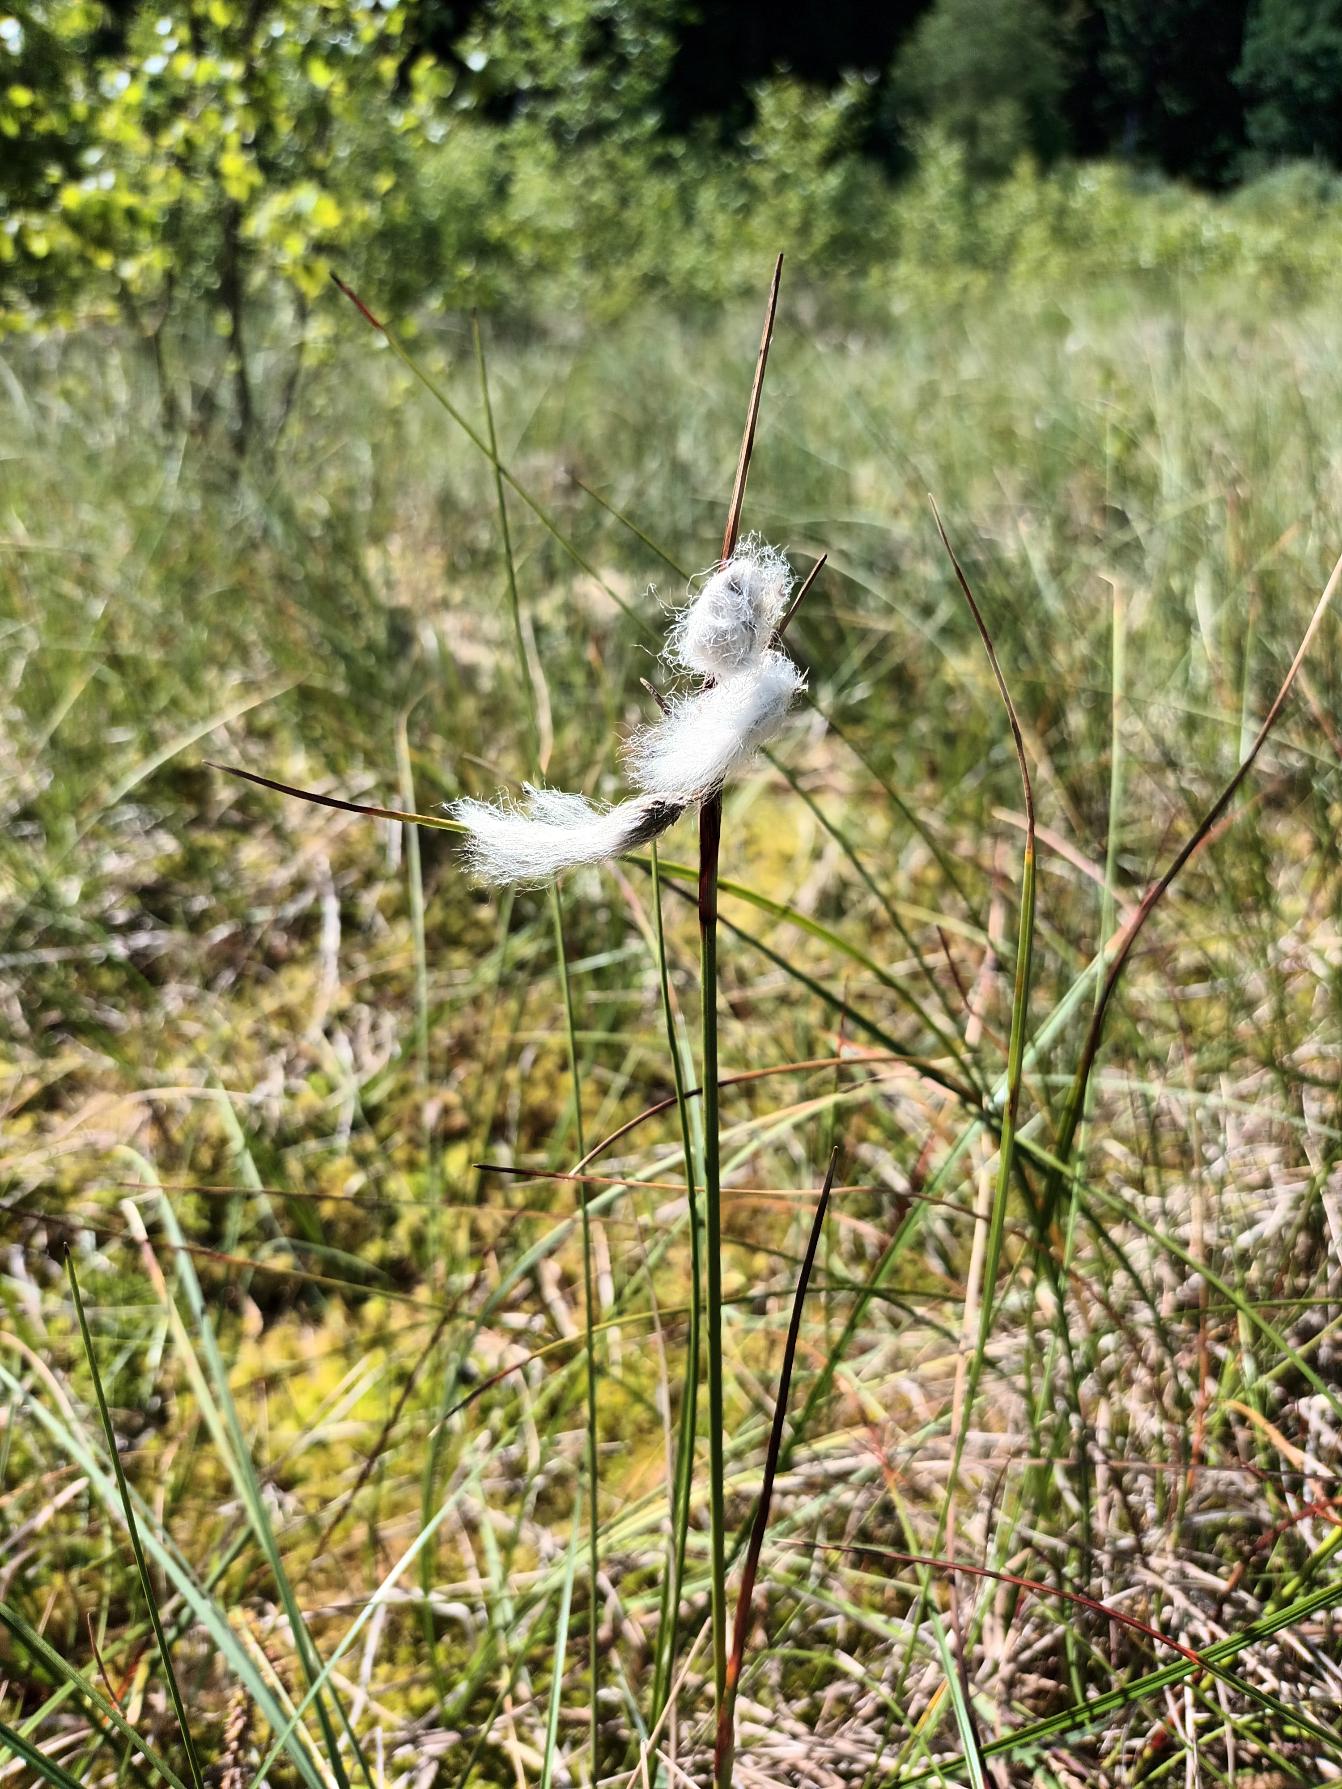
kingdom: Plantae
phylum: Tracheophyta
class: Liliopsida
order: Poales
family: Cyperaceae
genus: Eriophorum
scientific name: Eriophorum angustifolium
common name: Smalbladet kæruld
